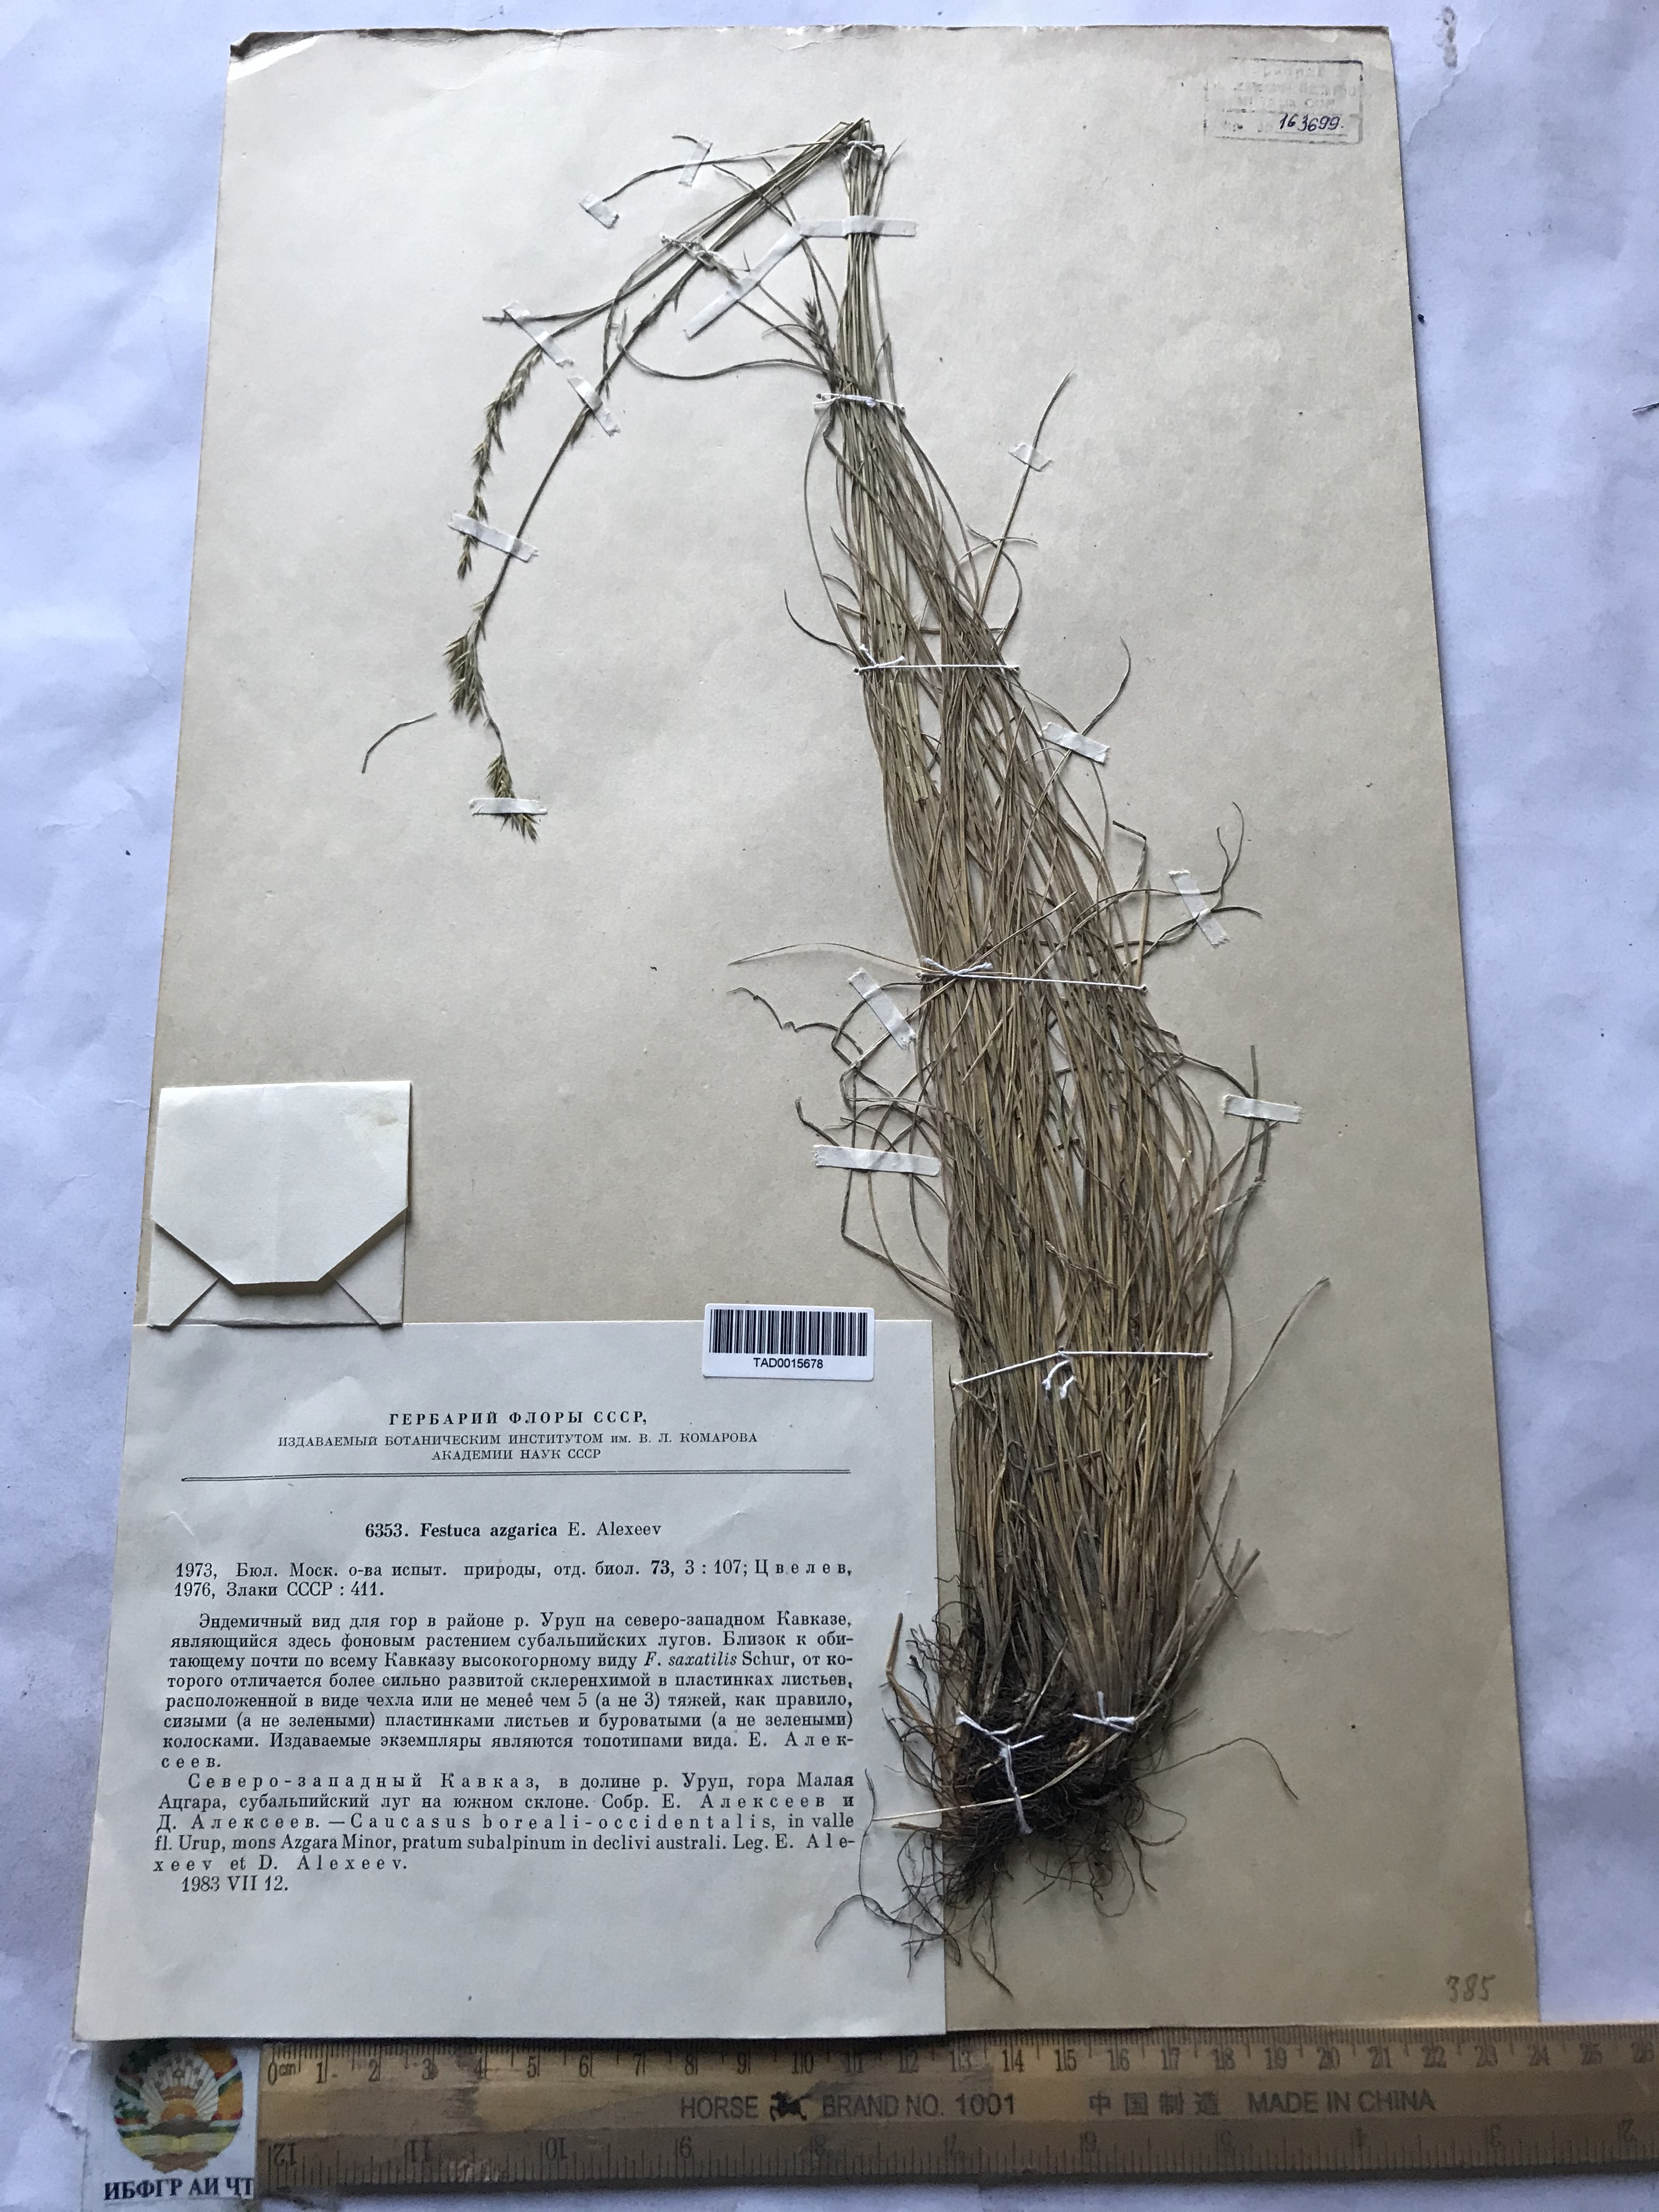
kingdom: Plantae
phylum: Tracheophyta
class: Liliopsida
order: Poales
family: Poaceae
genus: Festuca
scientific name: Festuca azgarica
